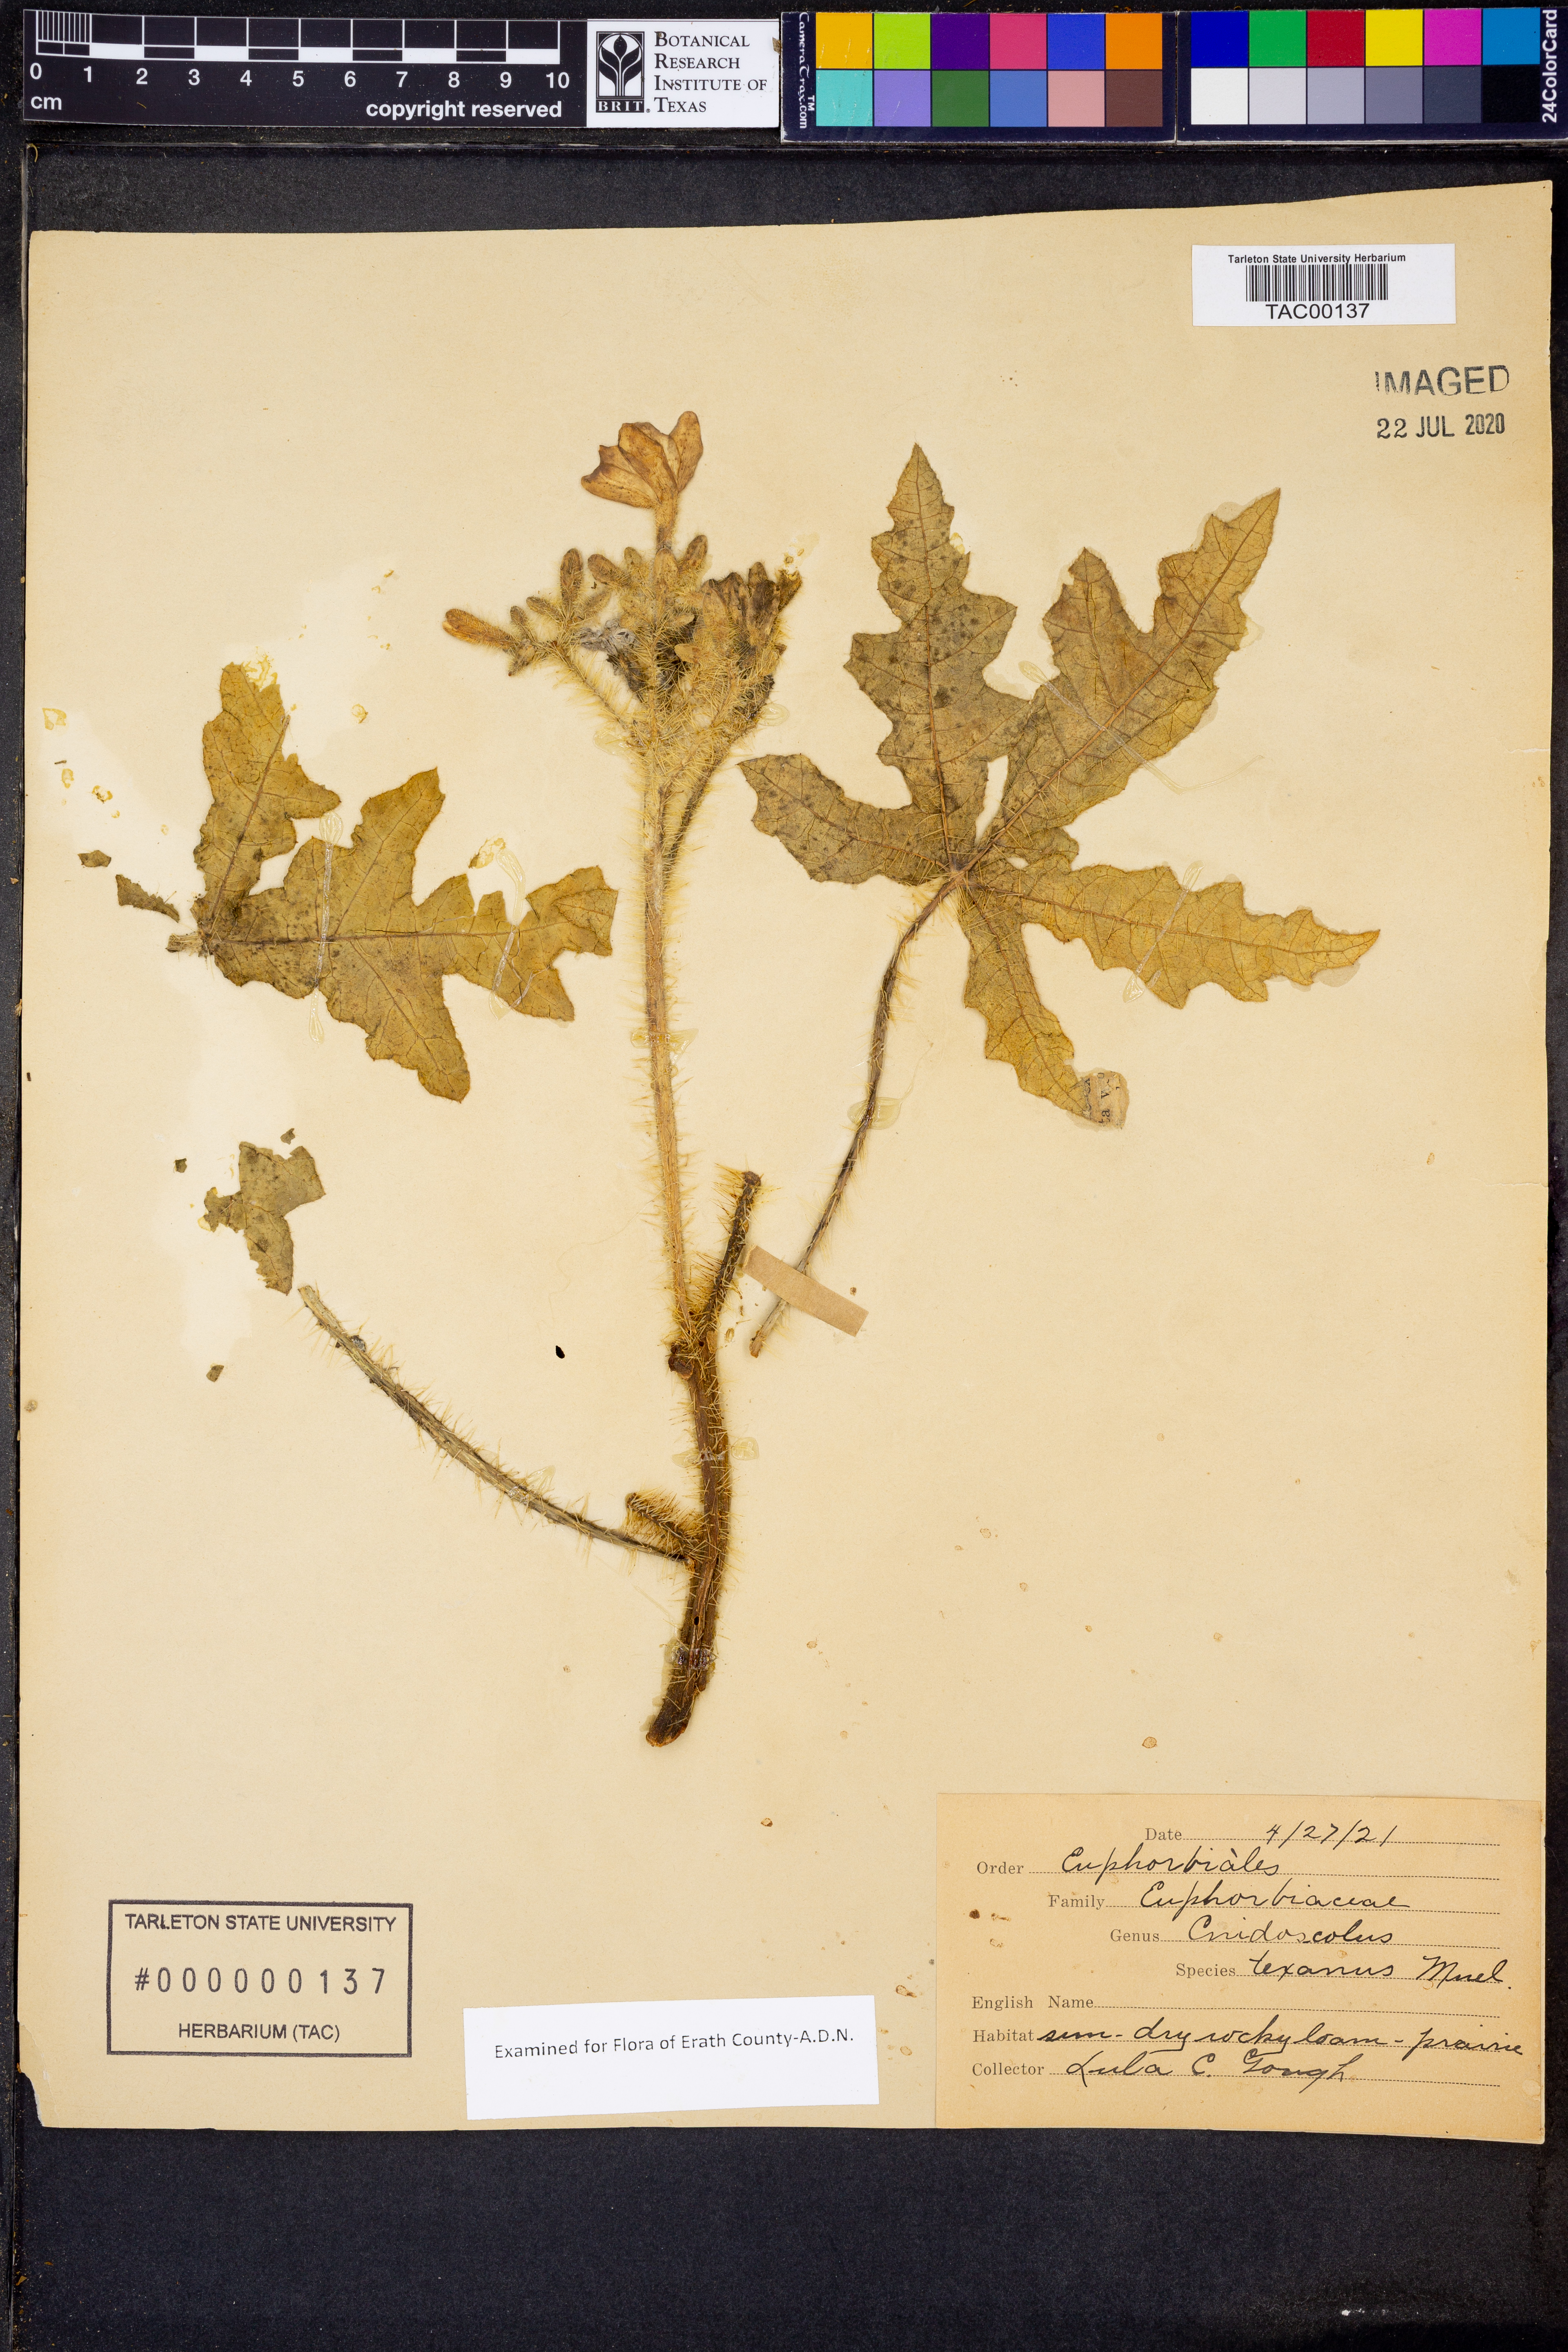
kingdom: Plantae
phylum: Tracheophyta
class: Magnoliopsida
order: Malpighiales
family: Euphorbiaceae
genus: Cnidoscolus
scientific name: Cnidoscolus texanus
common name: Texas bull-nettle
